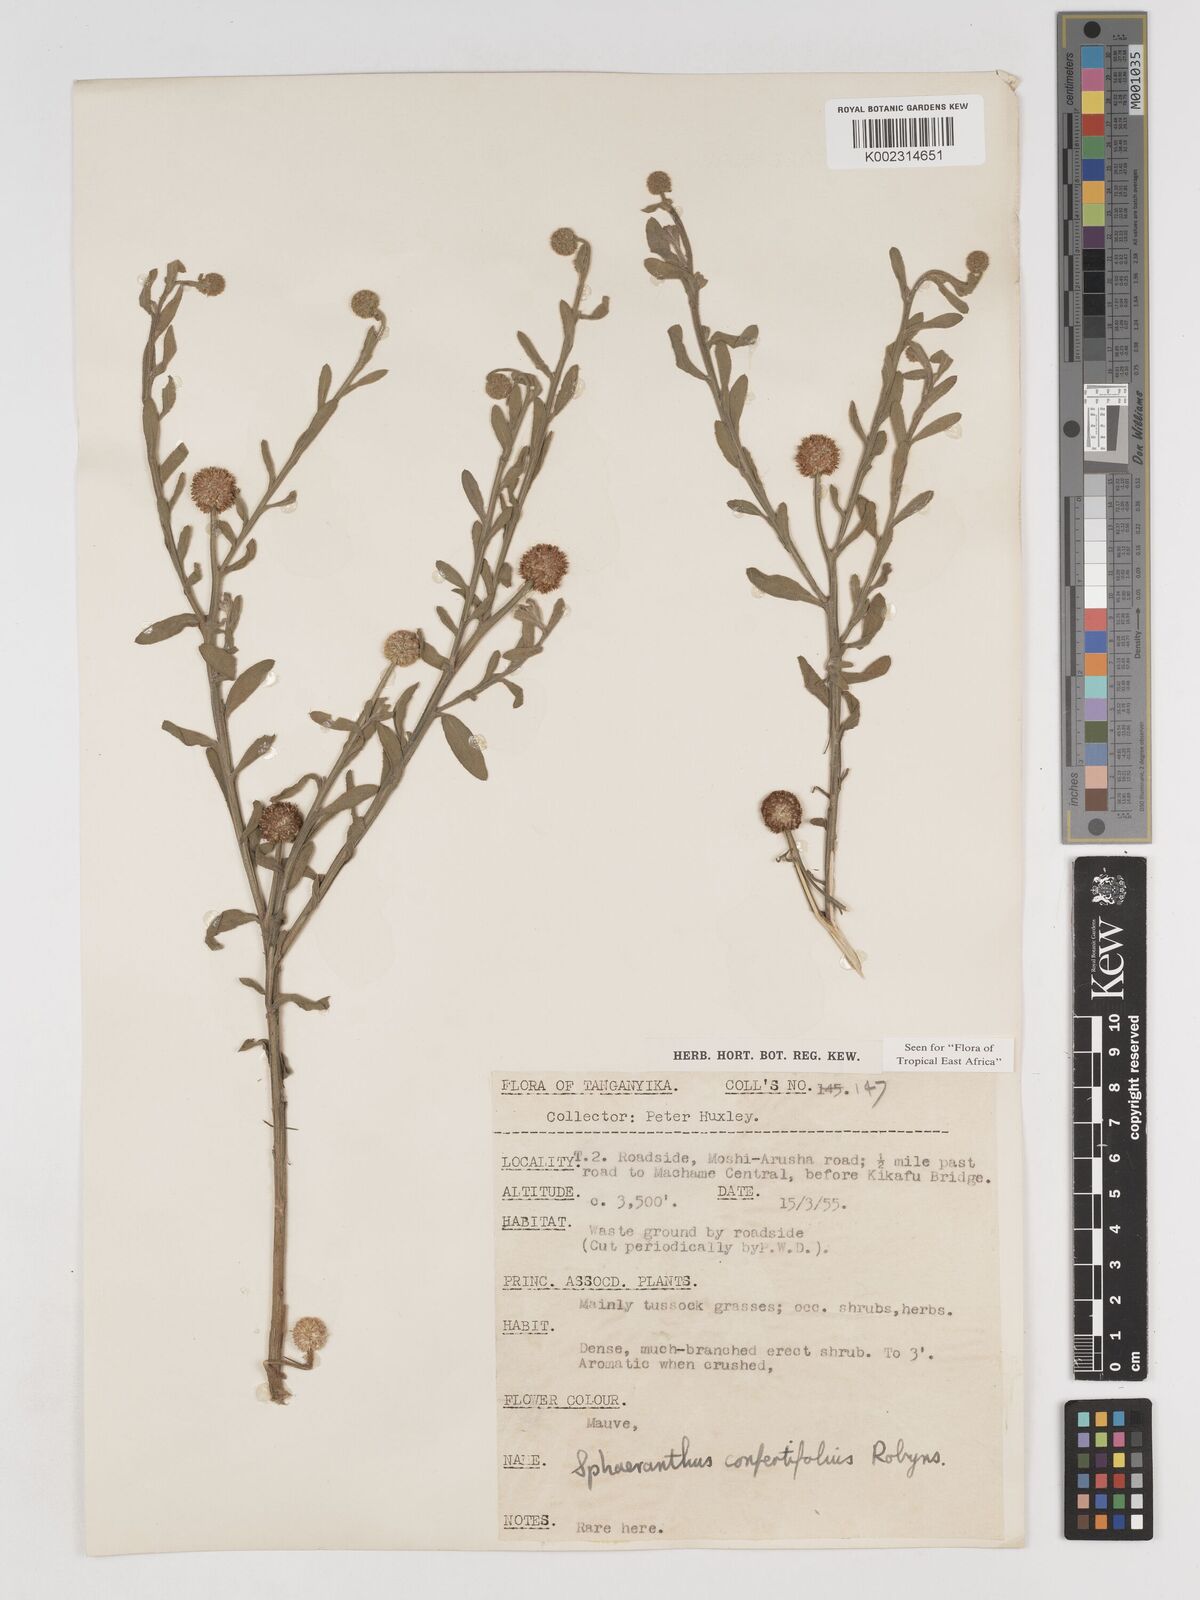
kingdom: Plantae
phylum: Tracheophyta
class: Magnoliopsida
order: Asterales
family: Asteraceae
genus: Sphaeranthus
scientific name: Sphaeranthus confertifolius
